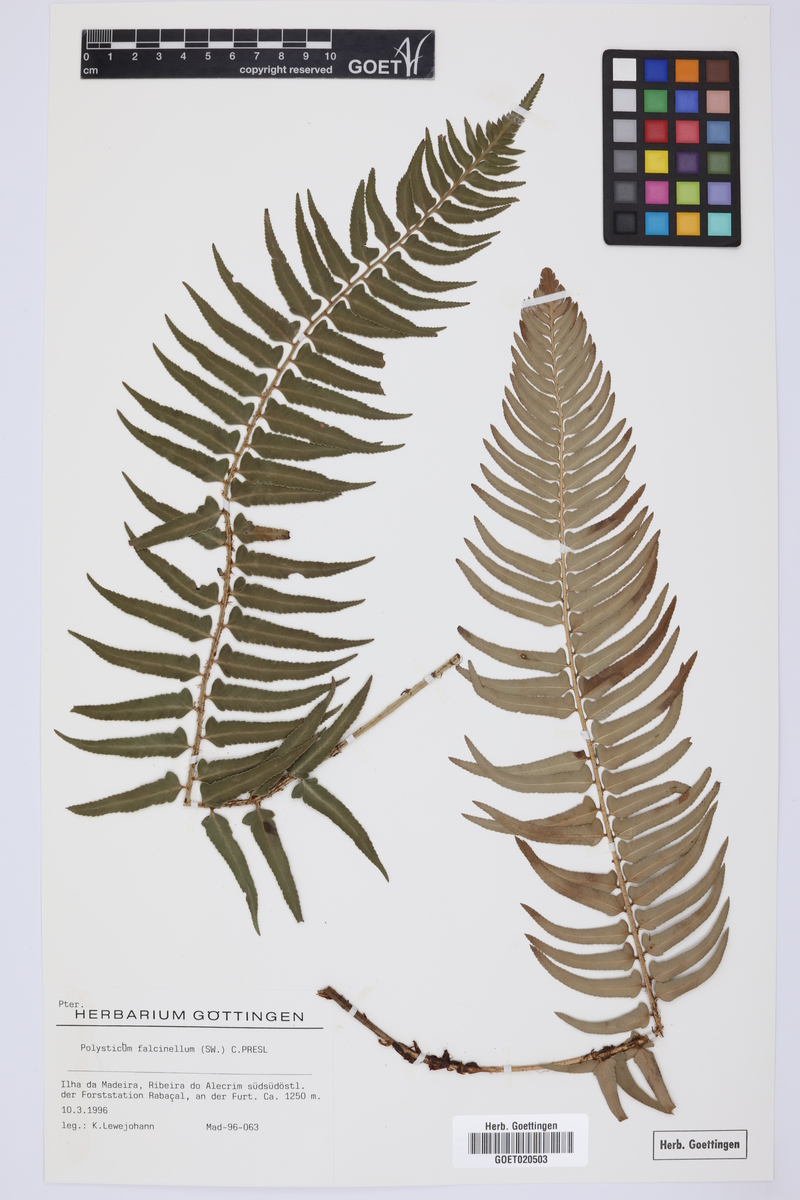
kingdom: Plantae
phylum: Tracheophyta
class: Polypodiopsida
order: Polypodiales
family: Dryopteridaceae
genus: Polystichum
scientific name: Polystichum falcinellum
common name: Madeira sword-fern
